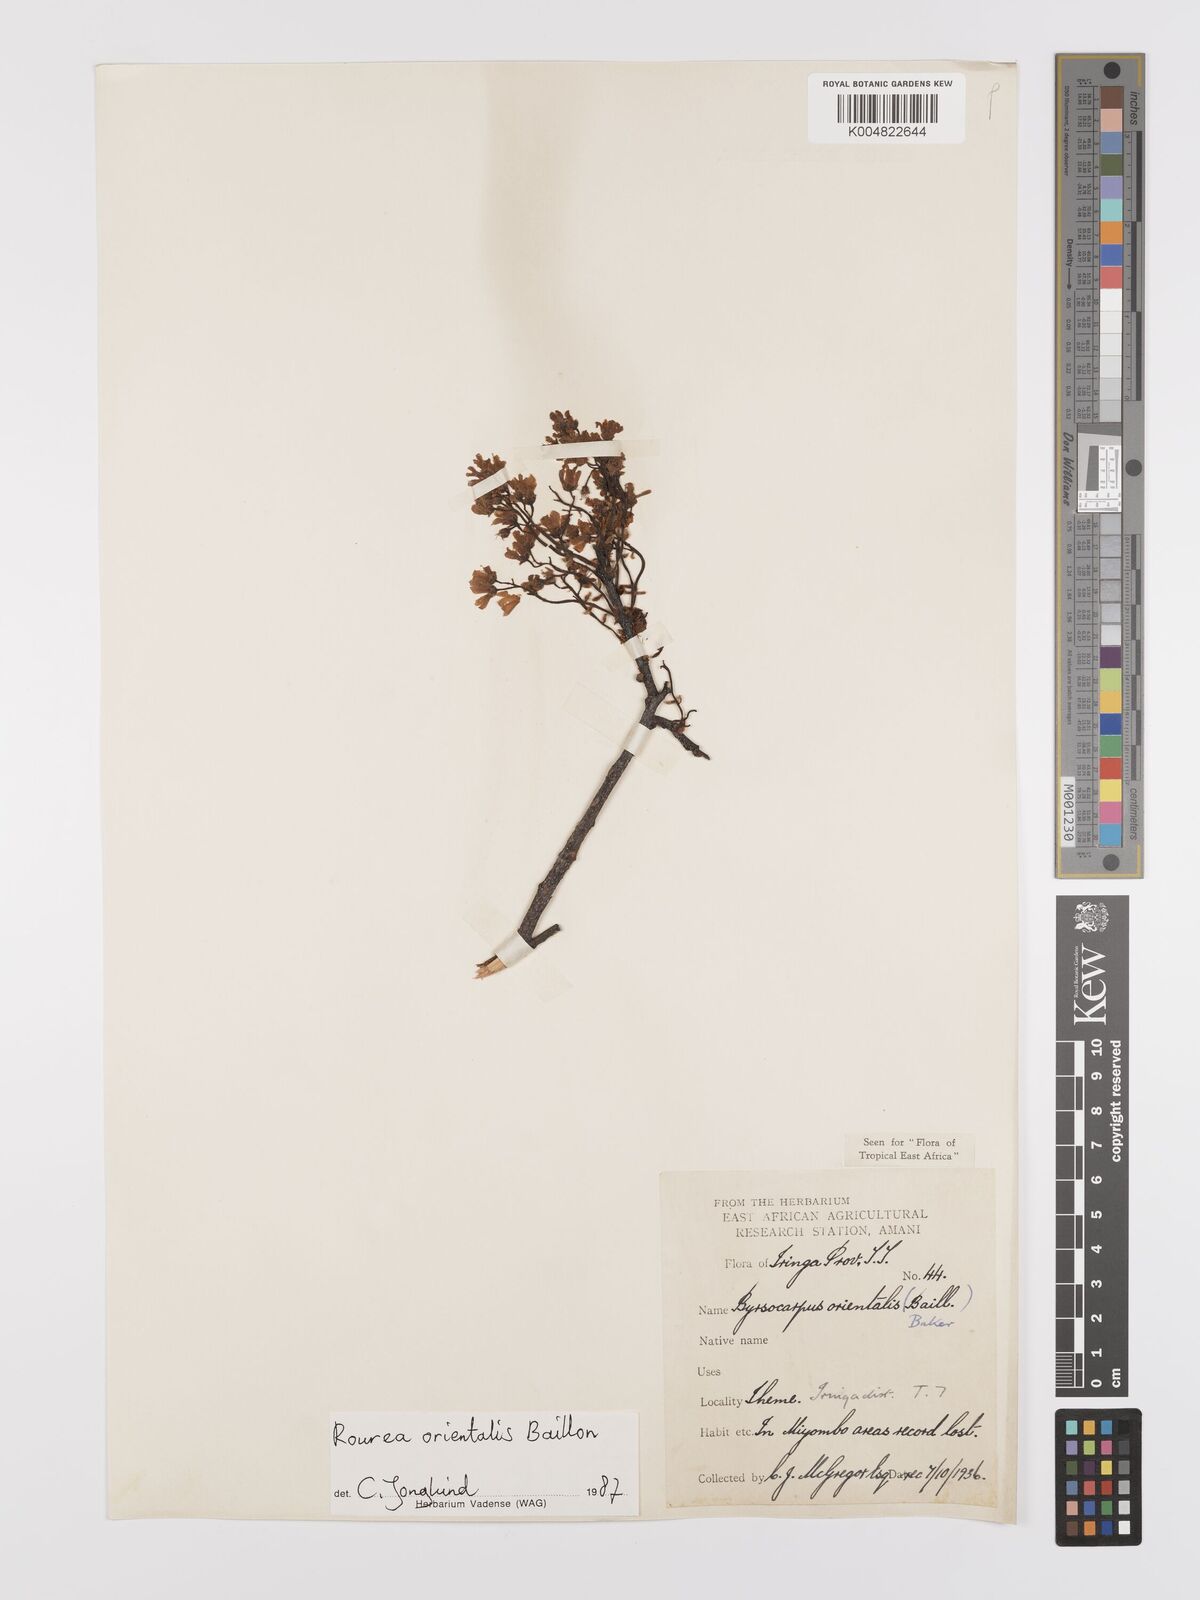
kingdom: Plantae
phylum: Tracheophyta
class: Magnoliopsida
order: Oxalidales
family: Connaraceae
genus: Rourea
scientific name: Rourea orientalis
